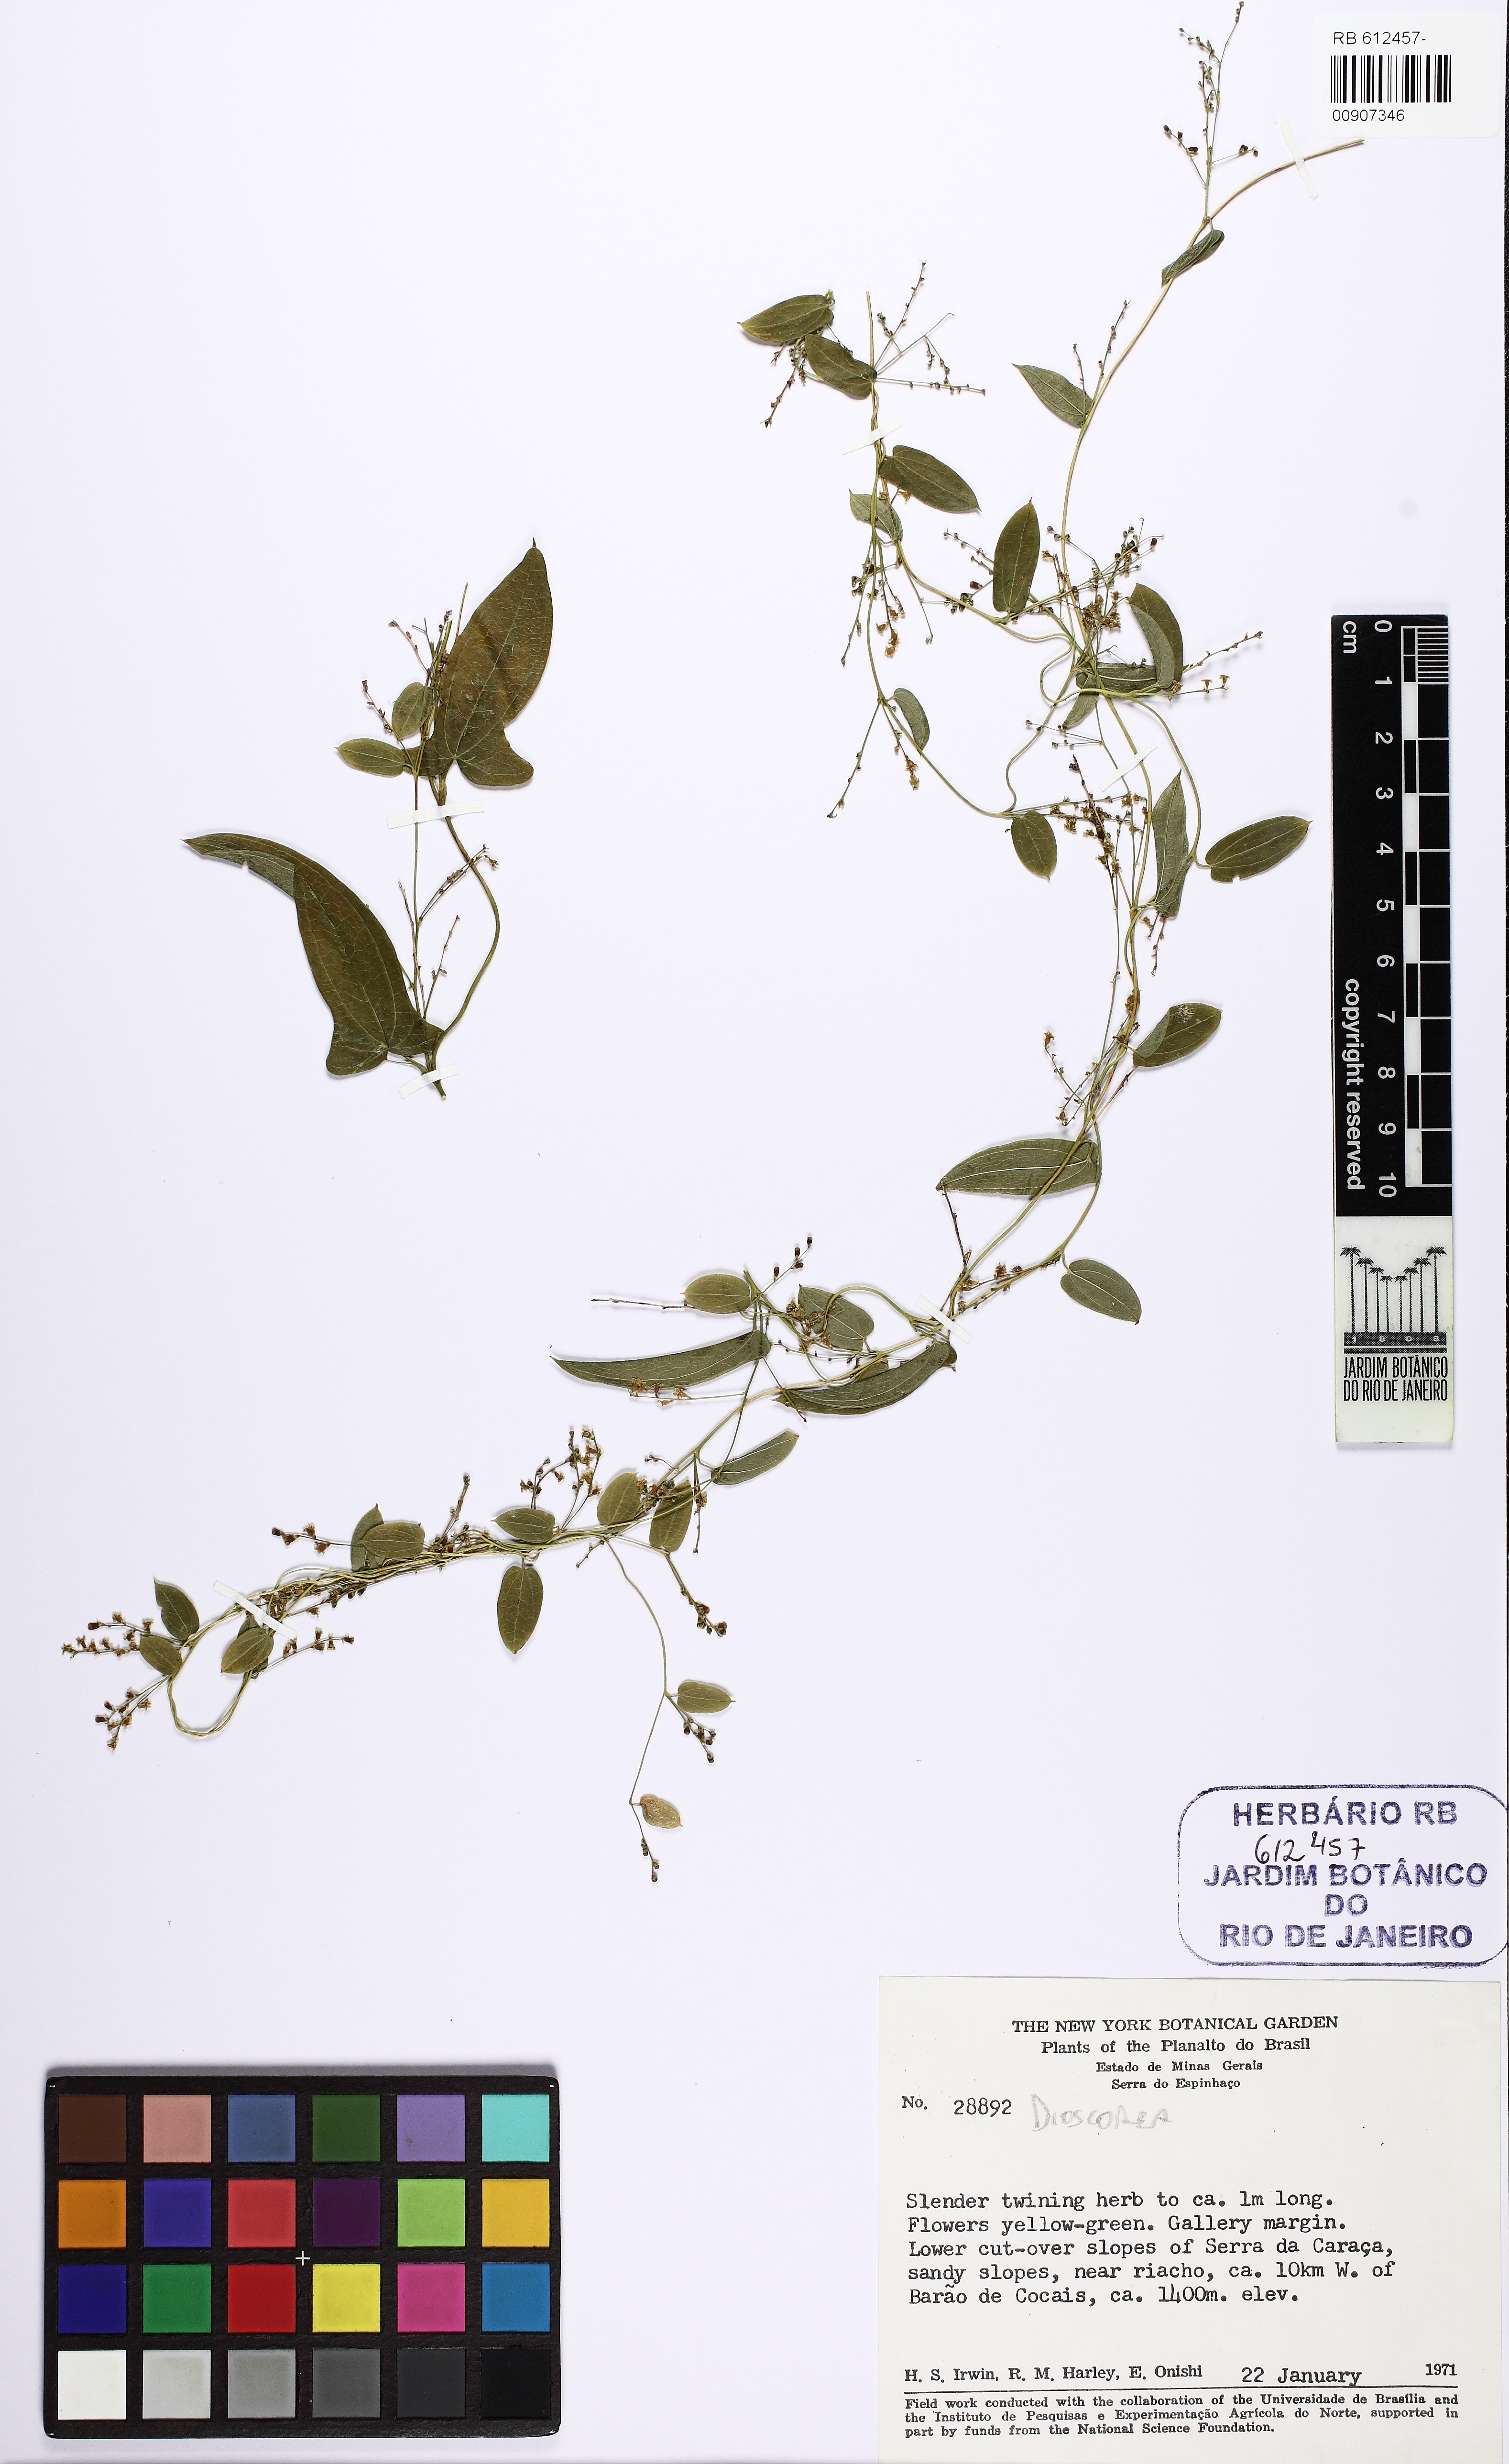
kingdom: Plantae
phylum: Tracheophyta
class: Liliopsida
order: Dioscoreales
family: Dioscoreaceae
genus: Dioscorea
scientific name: Dioscorea orthogoneura
